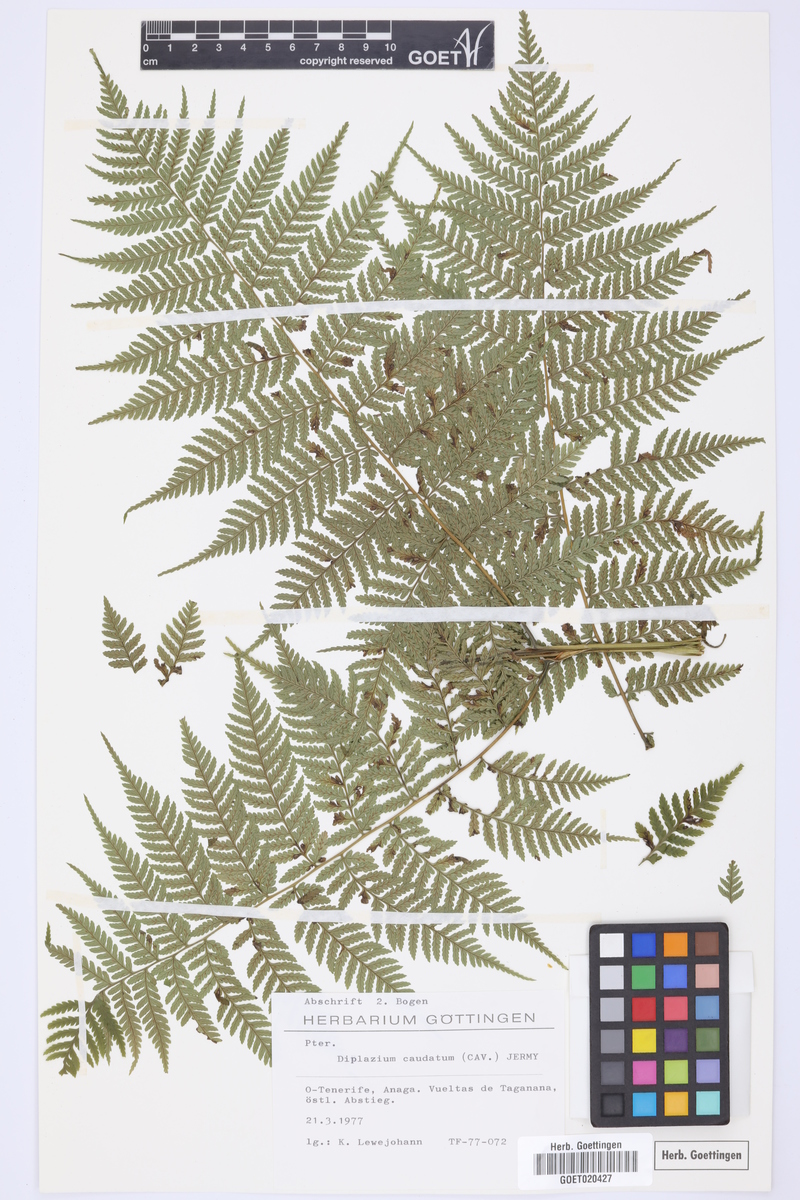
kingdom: Plantae
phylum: Tracheophyta
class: Polypodiopsida
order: Polypodiales
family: Athyriaceae
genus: Diplazium
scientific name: Diplazium caudatum
